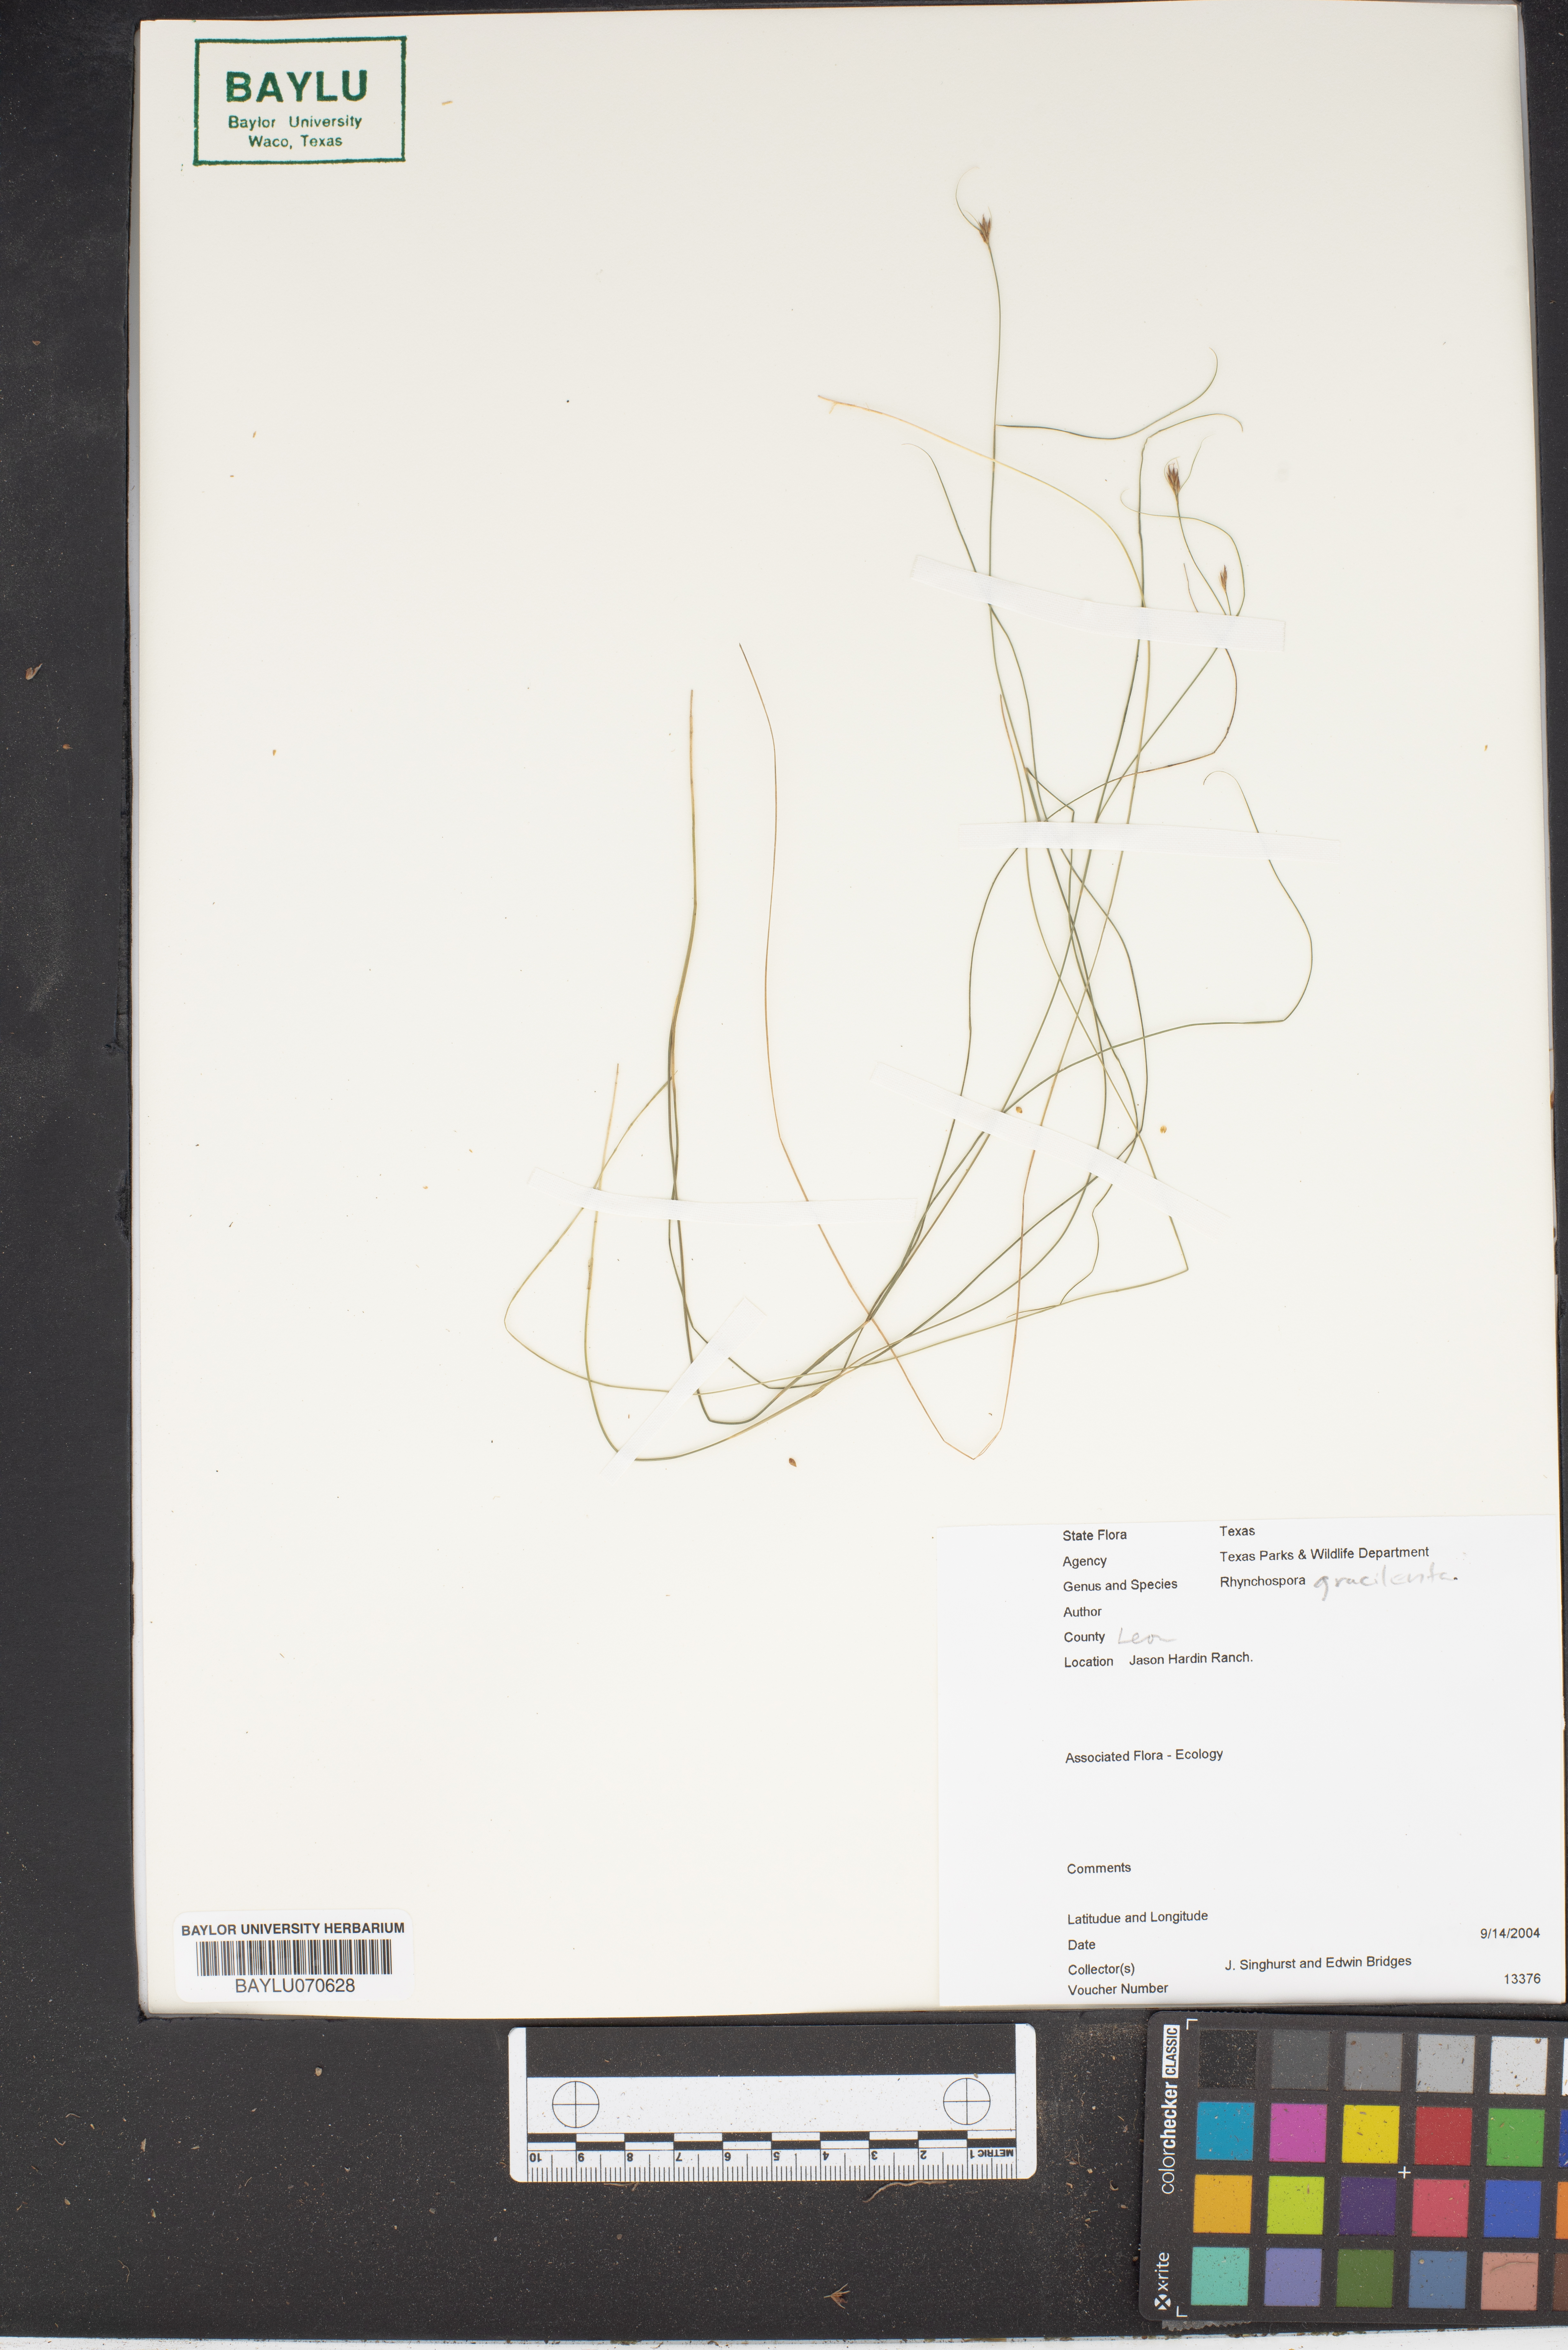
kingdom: Plantae
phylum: Tracheophyta
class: Liliopsida
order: Poales
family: Cyperaceae
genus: Rhynchospora
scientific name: Rhynchospora gracilenta
